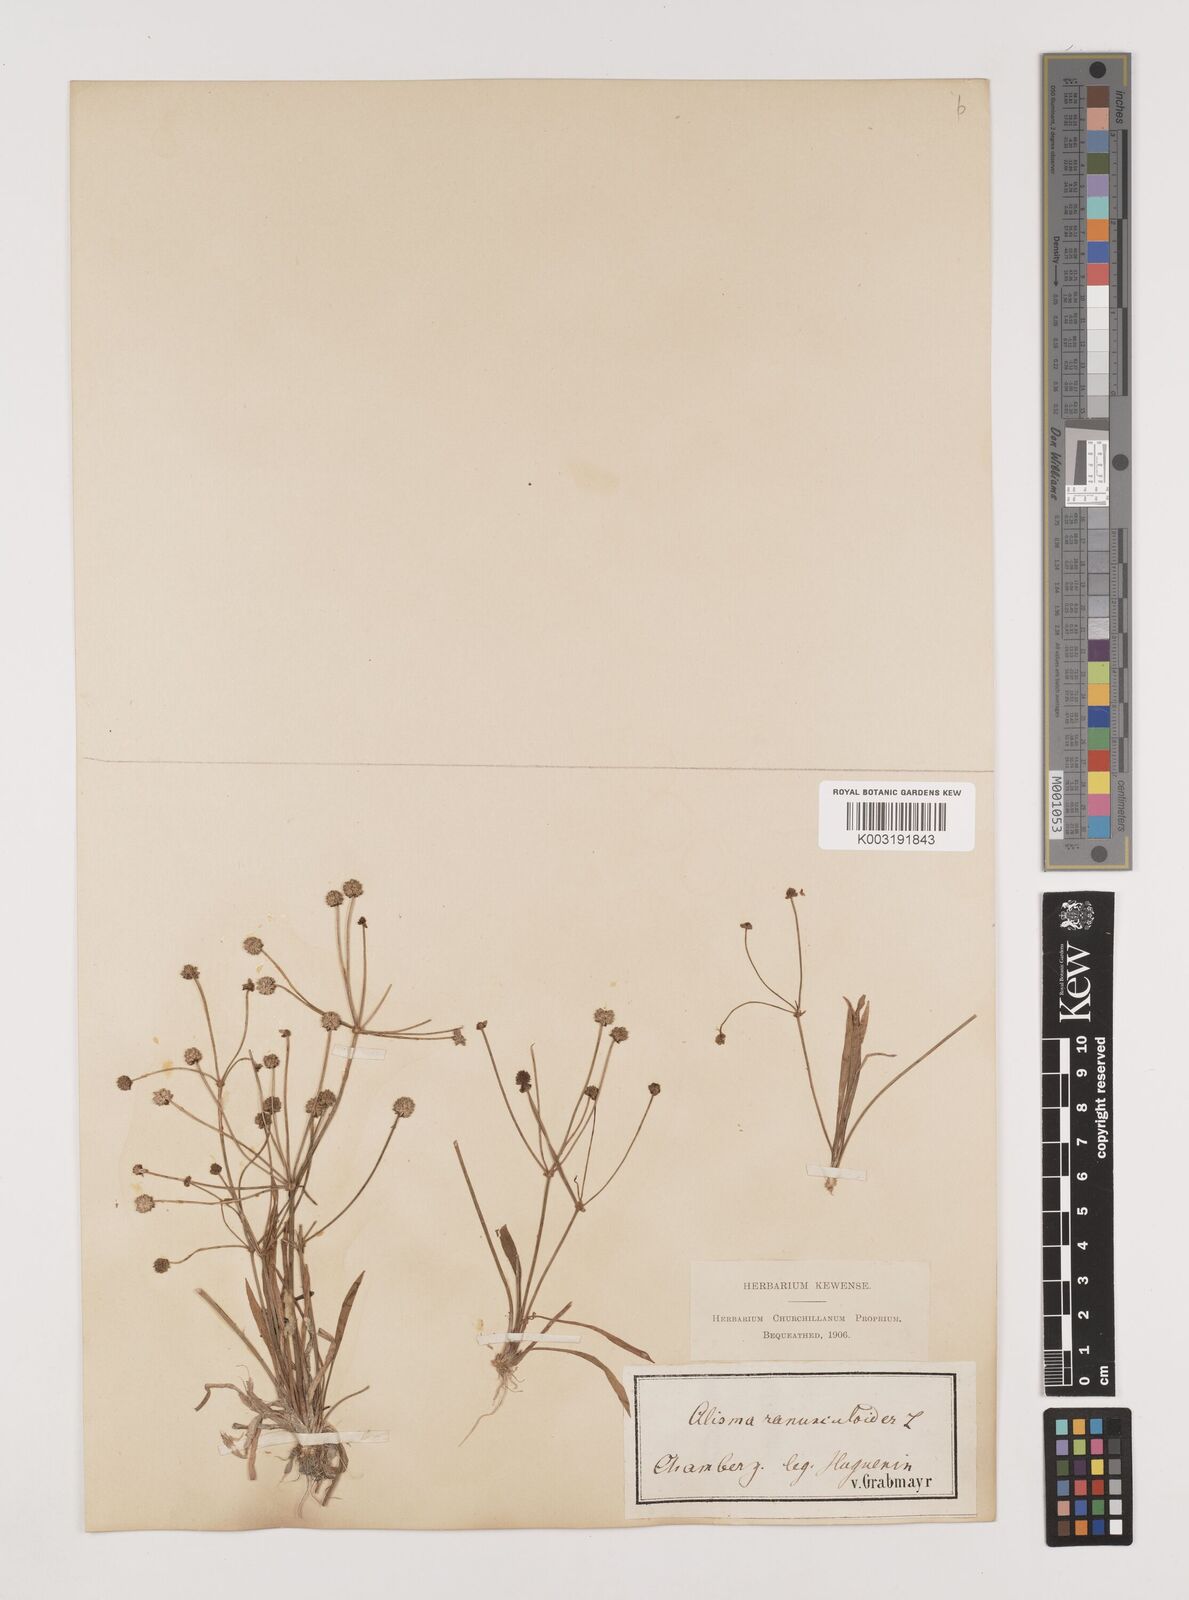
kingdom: Plantae
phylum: Tracheophyta
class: Liliopsida
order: Alismatales
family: Alismataceae
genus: Baldellia
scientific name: Baldellia ranunculoides
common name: Lesser water-plantain
